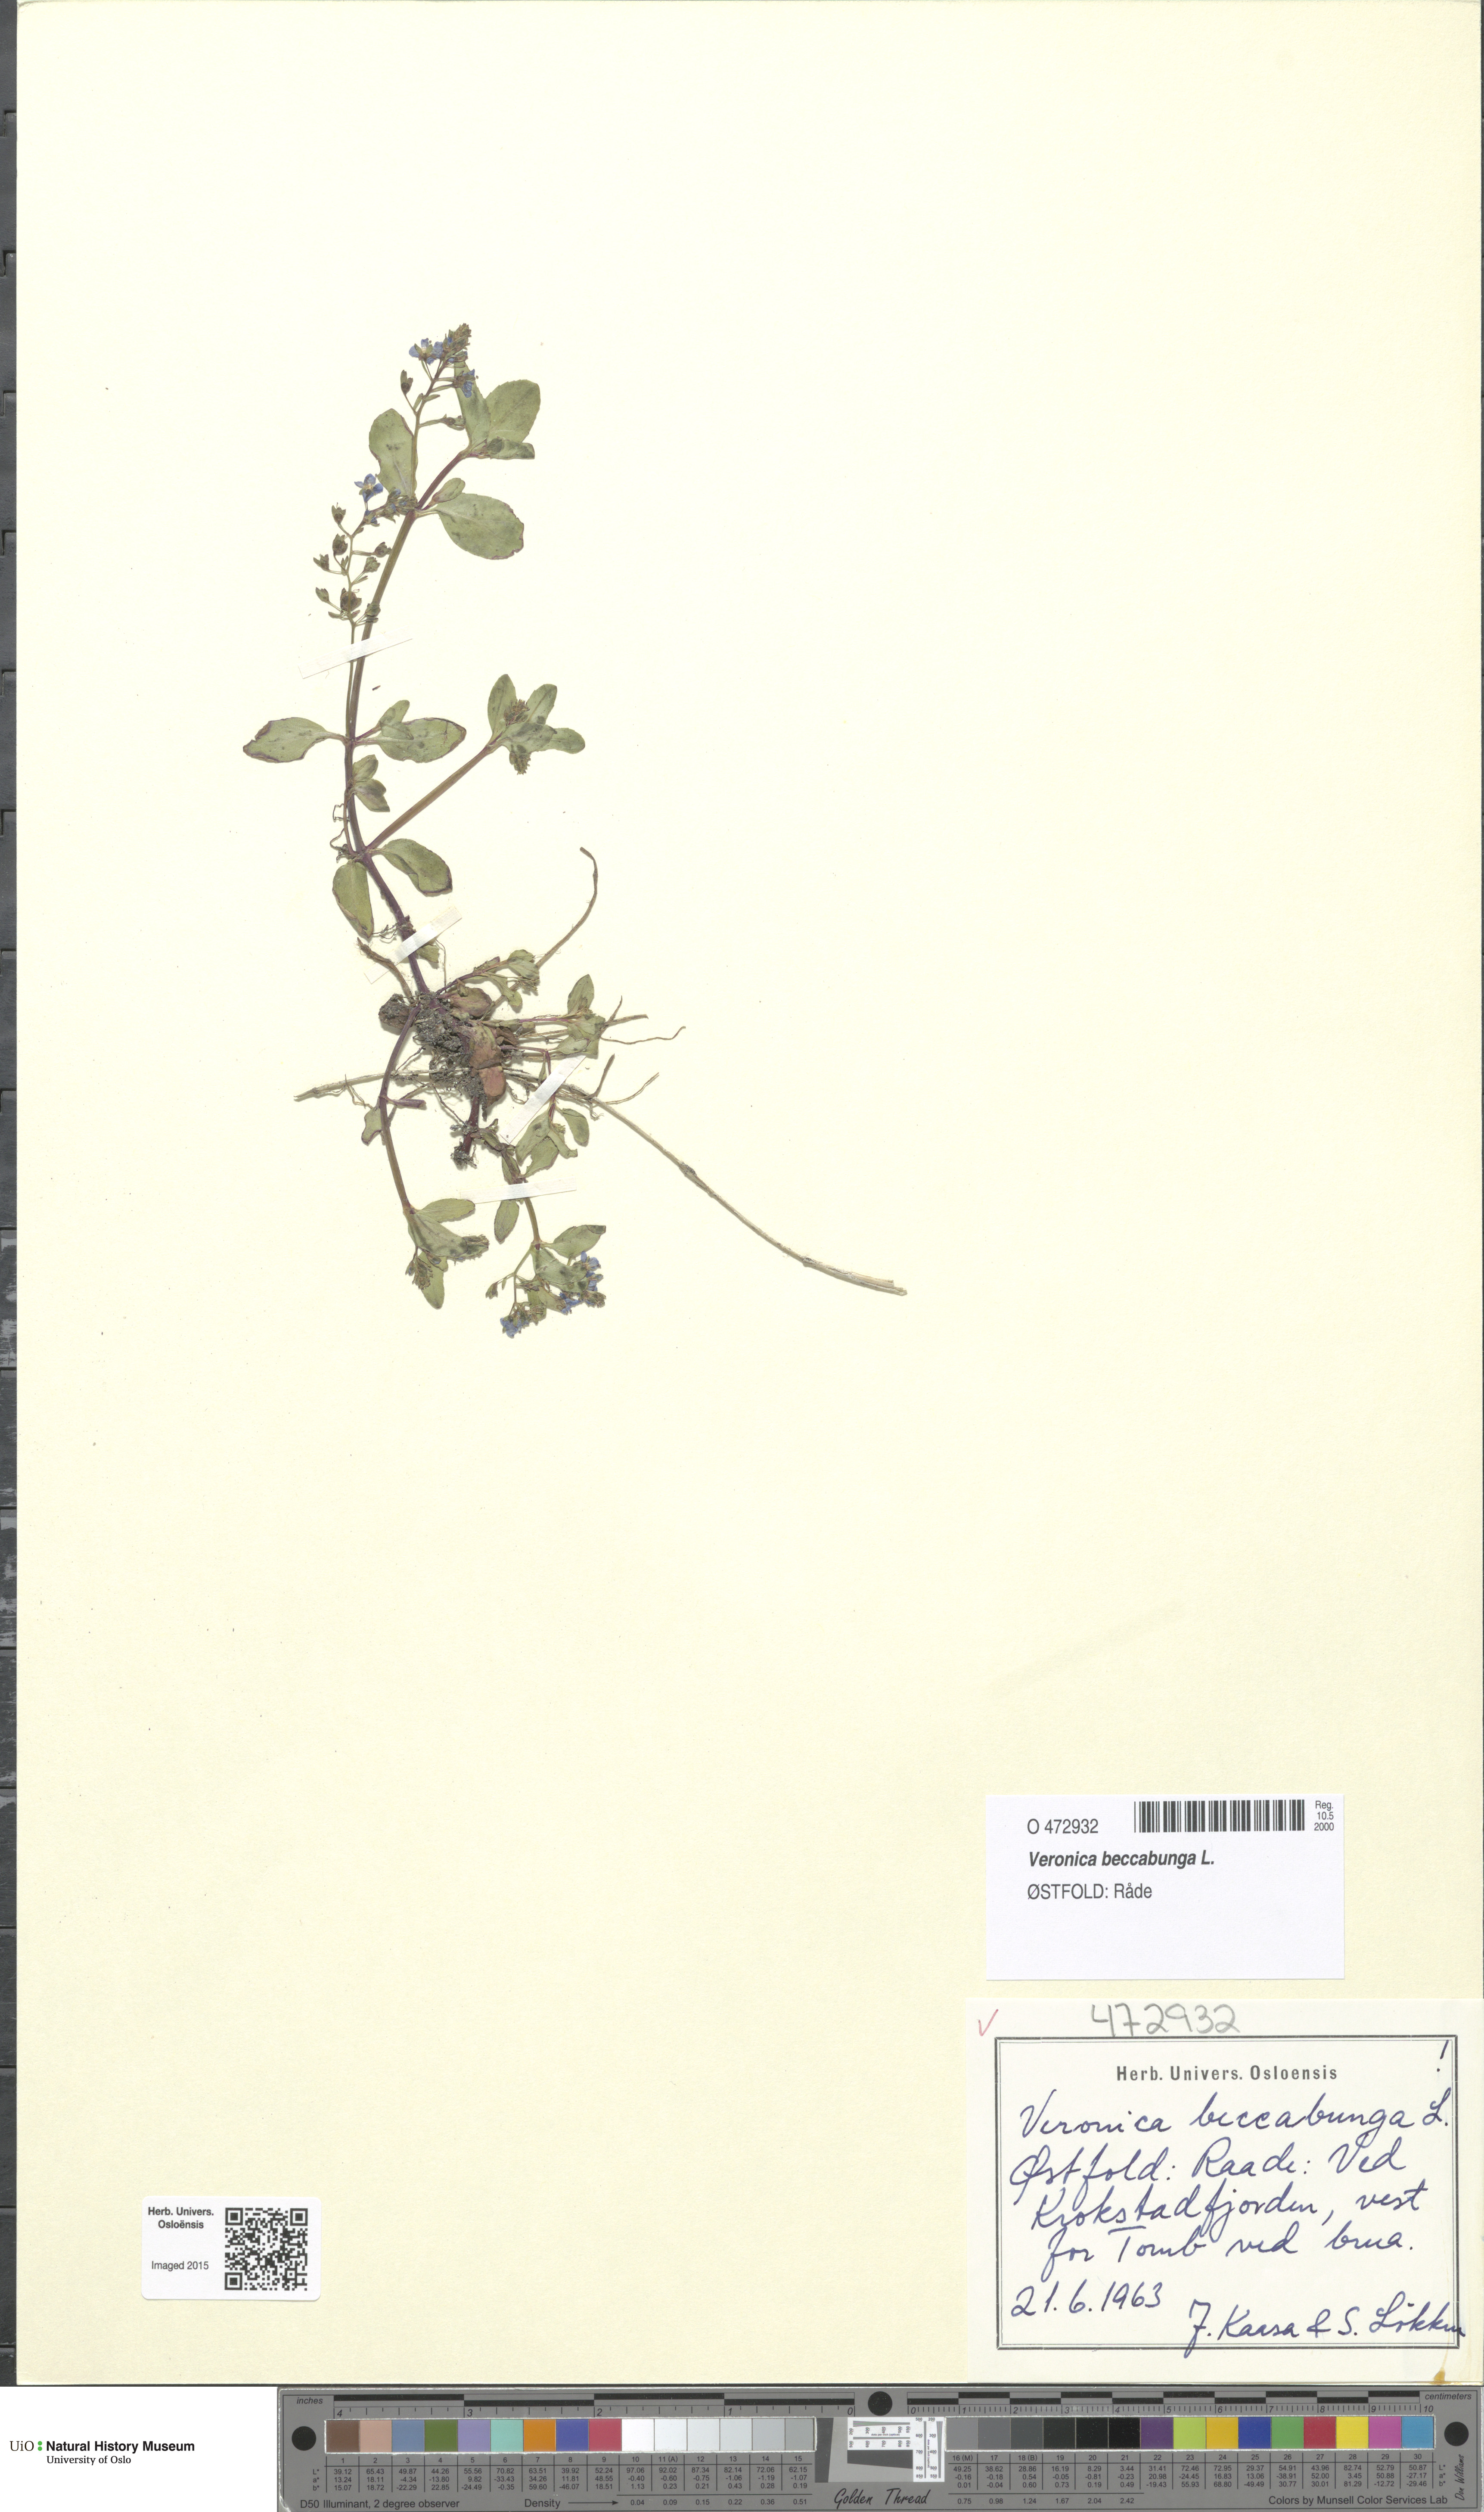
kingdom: Plantae
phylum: Tracheophyta
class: Magnoliopsida
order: Lamiales
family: Plantaginaceae
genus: Veronica
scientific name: Veronica beccabunga
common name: Brooklime
